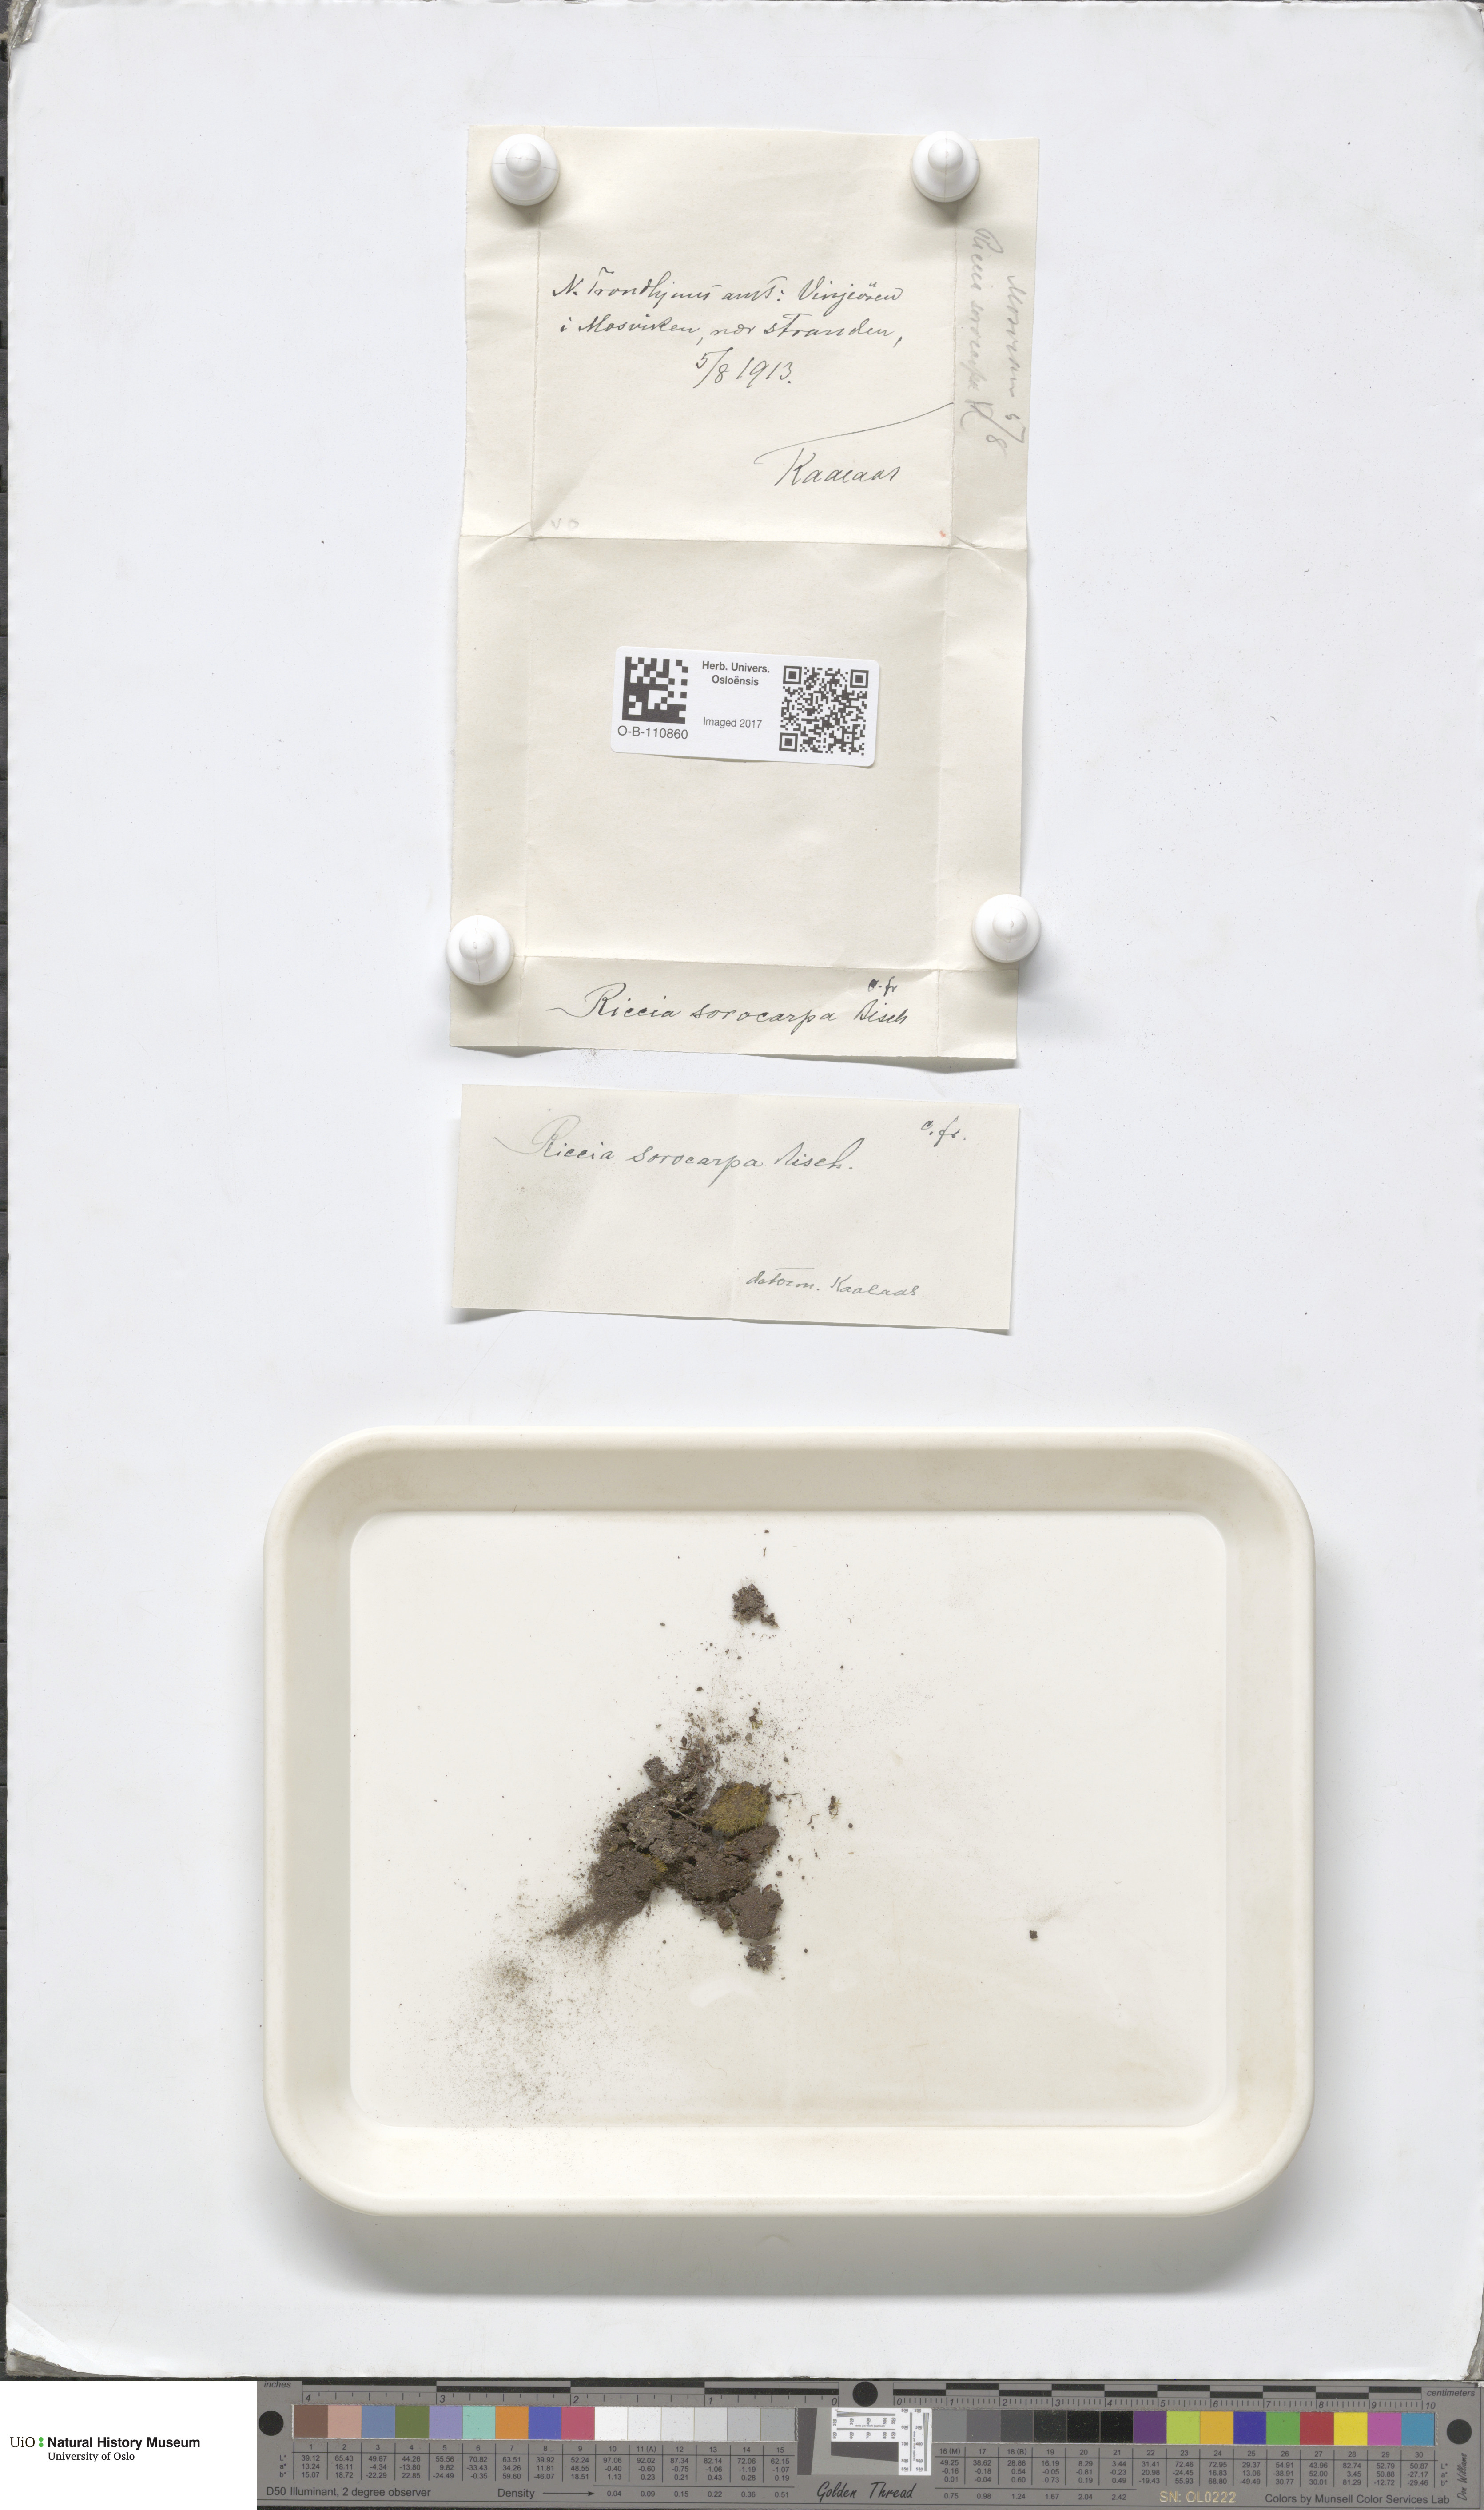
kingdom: Plantae
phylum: Marchantiophyta
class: Marchantiopsida
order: Marchantiales
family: Ricciaceae
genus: Riccia
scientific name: Riccia sorocarpa
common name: Common crystalwort
